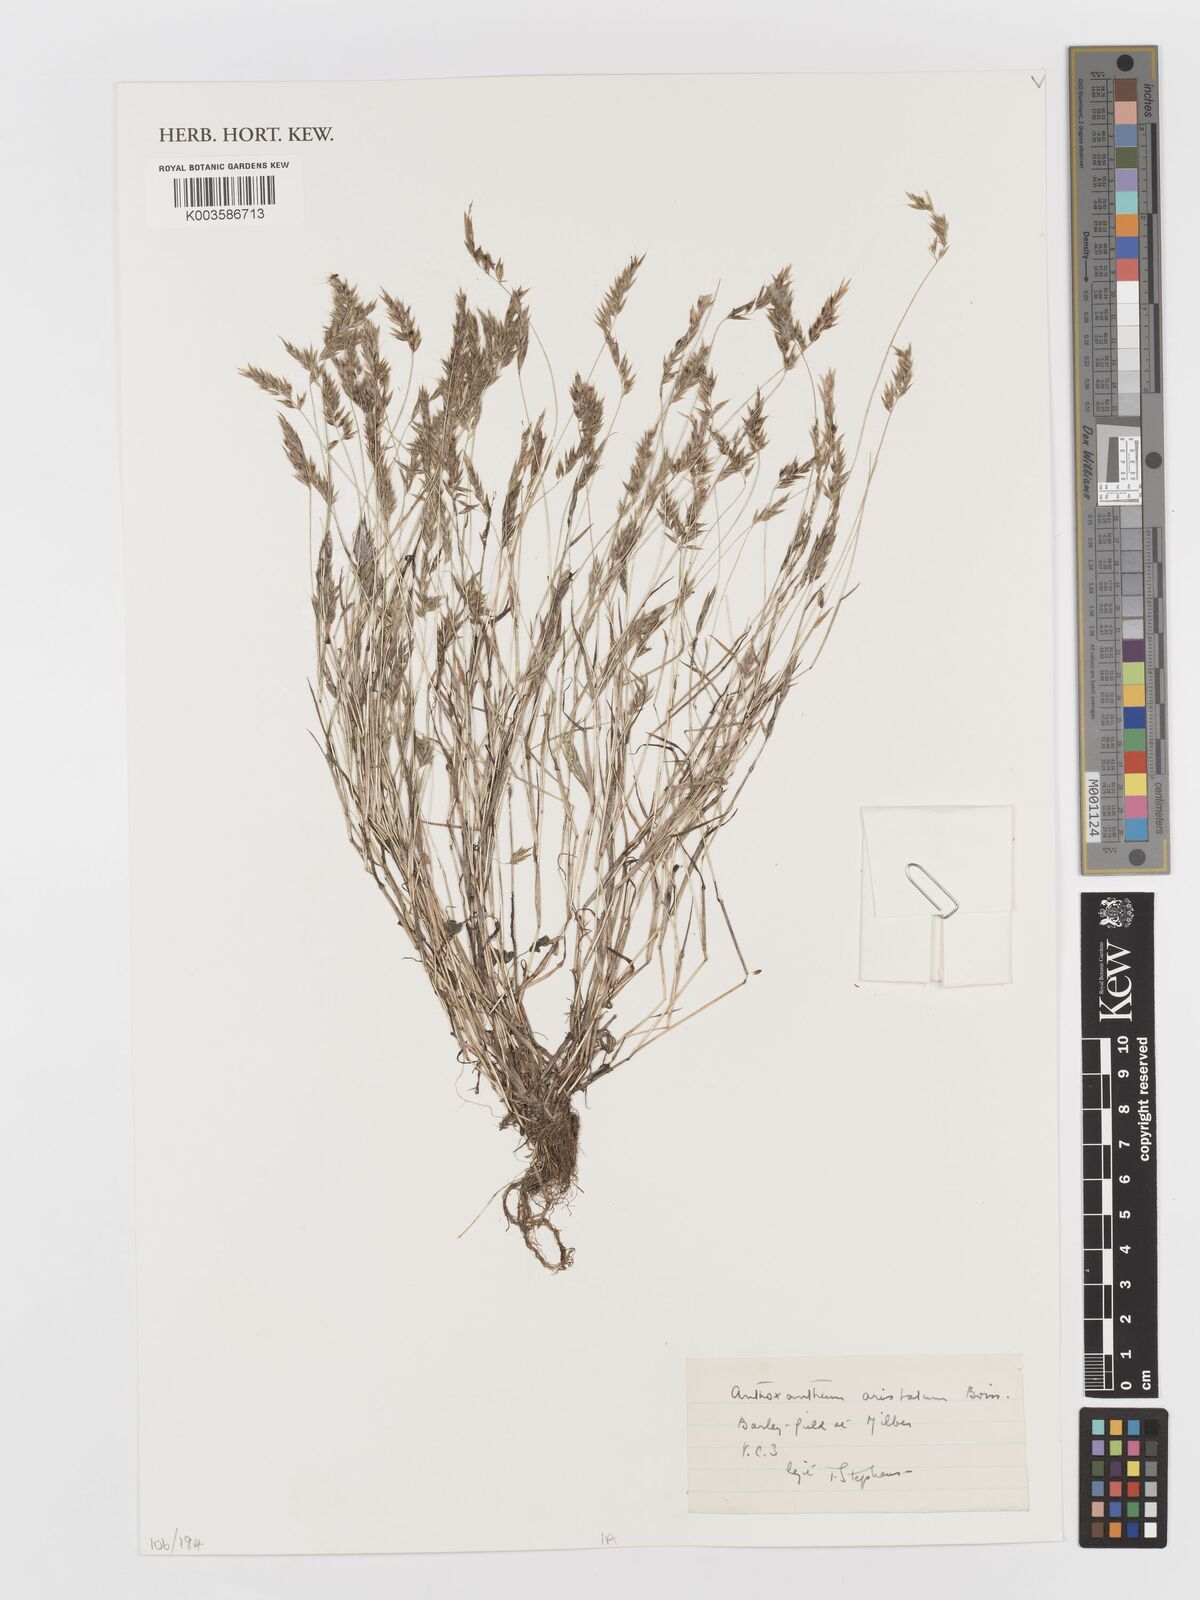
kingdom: Plantae
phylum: Tracheophyta
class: Liliopsida
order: Poales
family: Poaceae
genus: Anthoxanthum
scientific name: Anthoxanthum aristatum
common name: Annual vernal-grass
